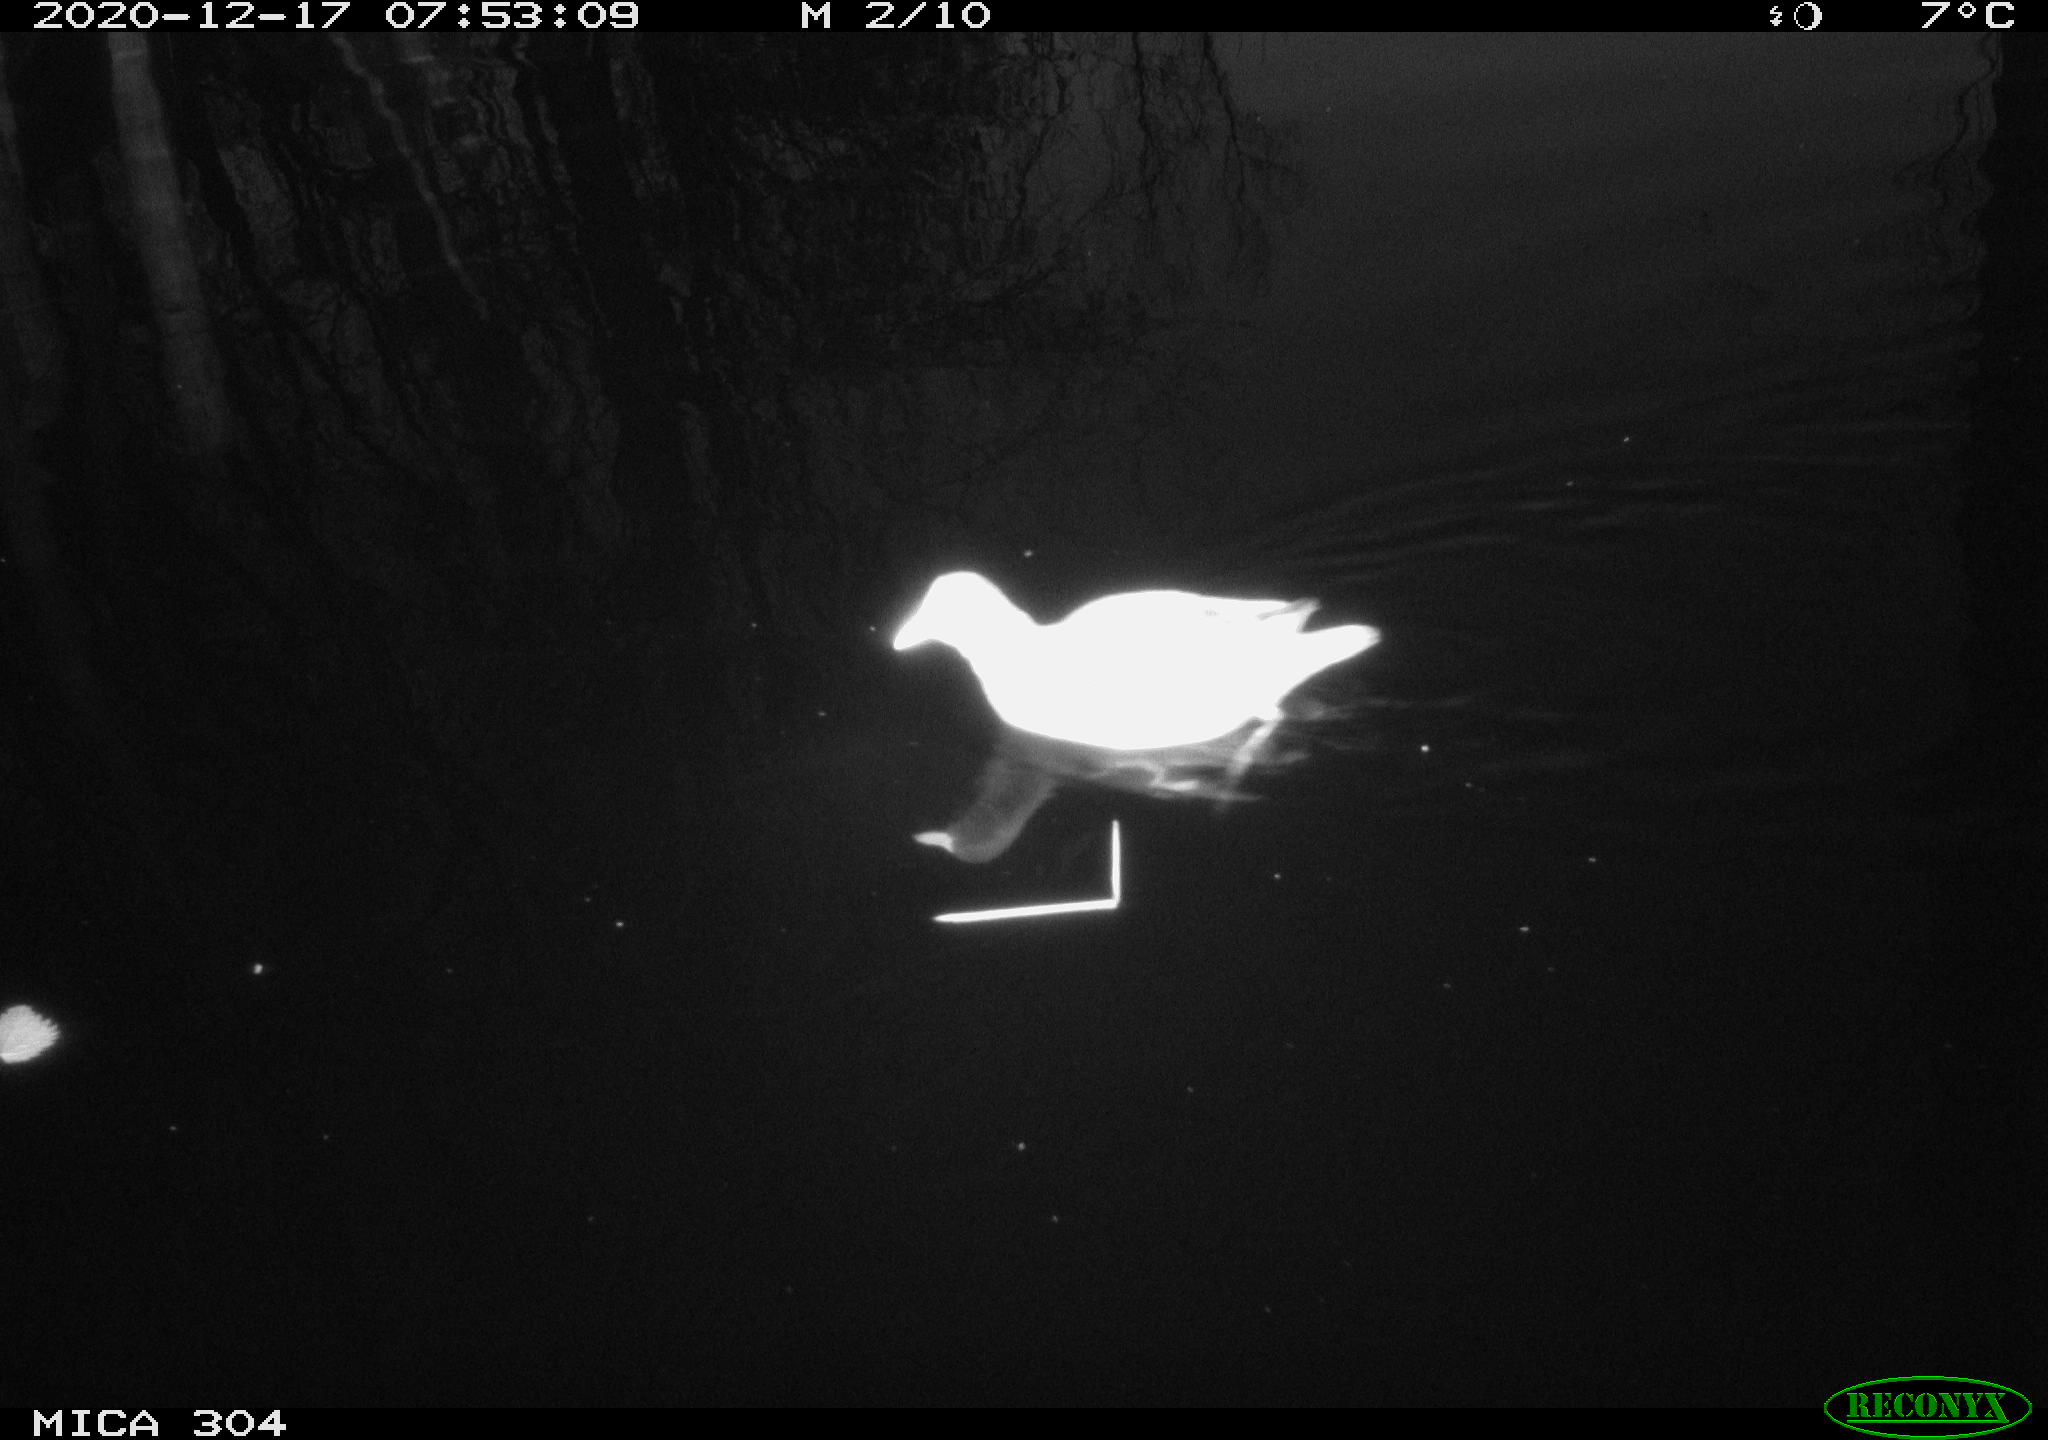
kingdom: Animalia
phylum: Chordata
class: Aves
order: Gruiformes
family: Rallidae
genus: Gallinula
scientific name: Gallinula chloropus
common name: Common moorhen
